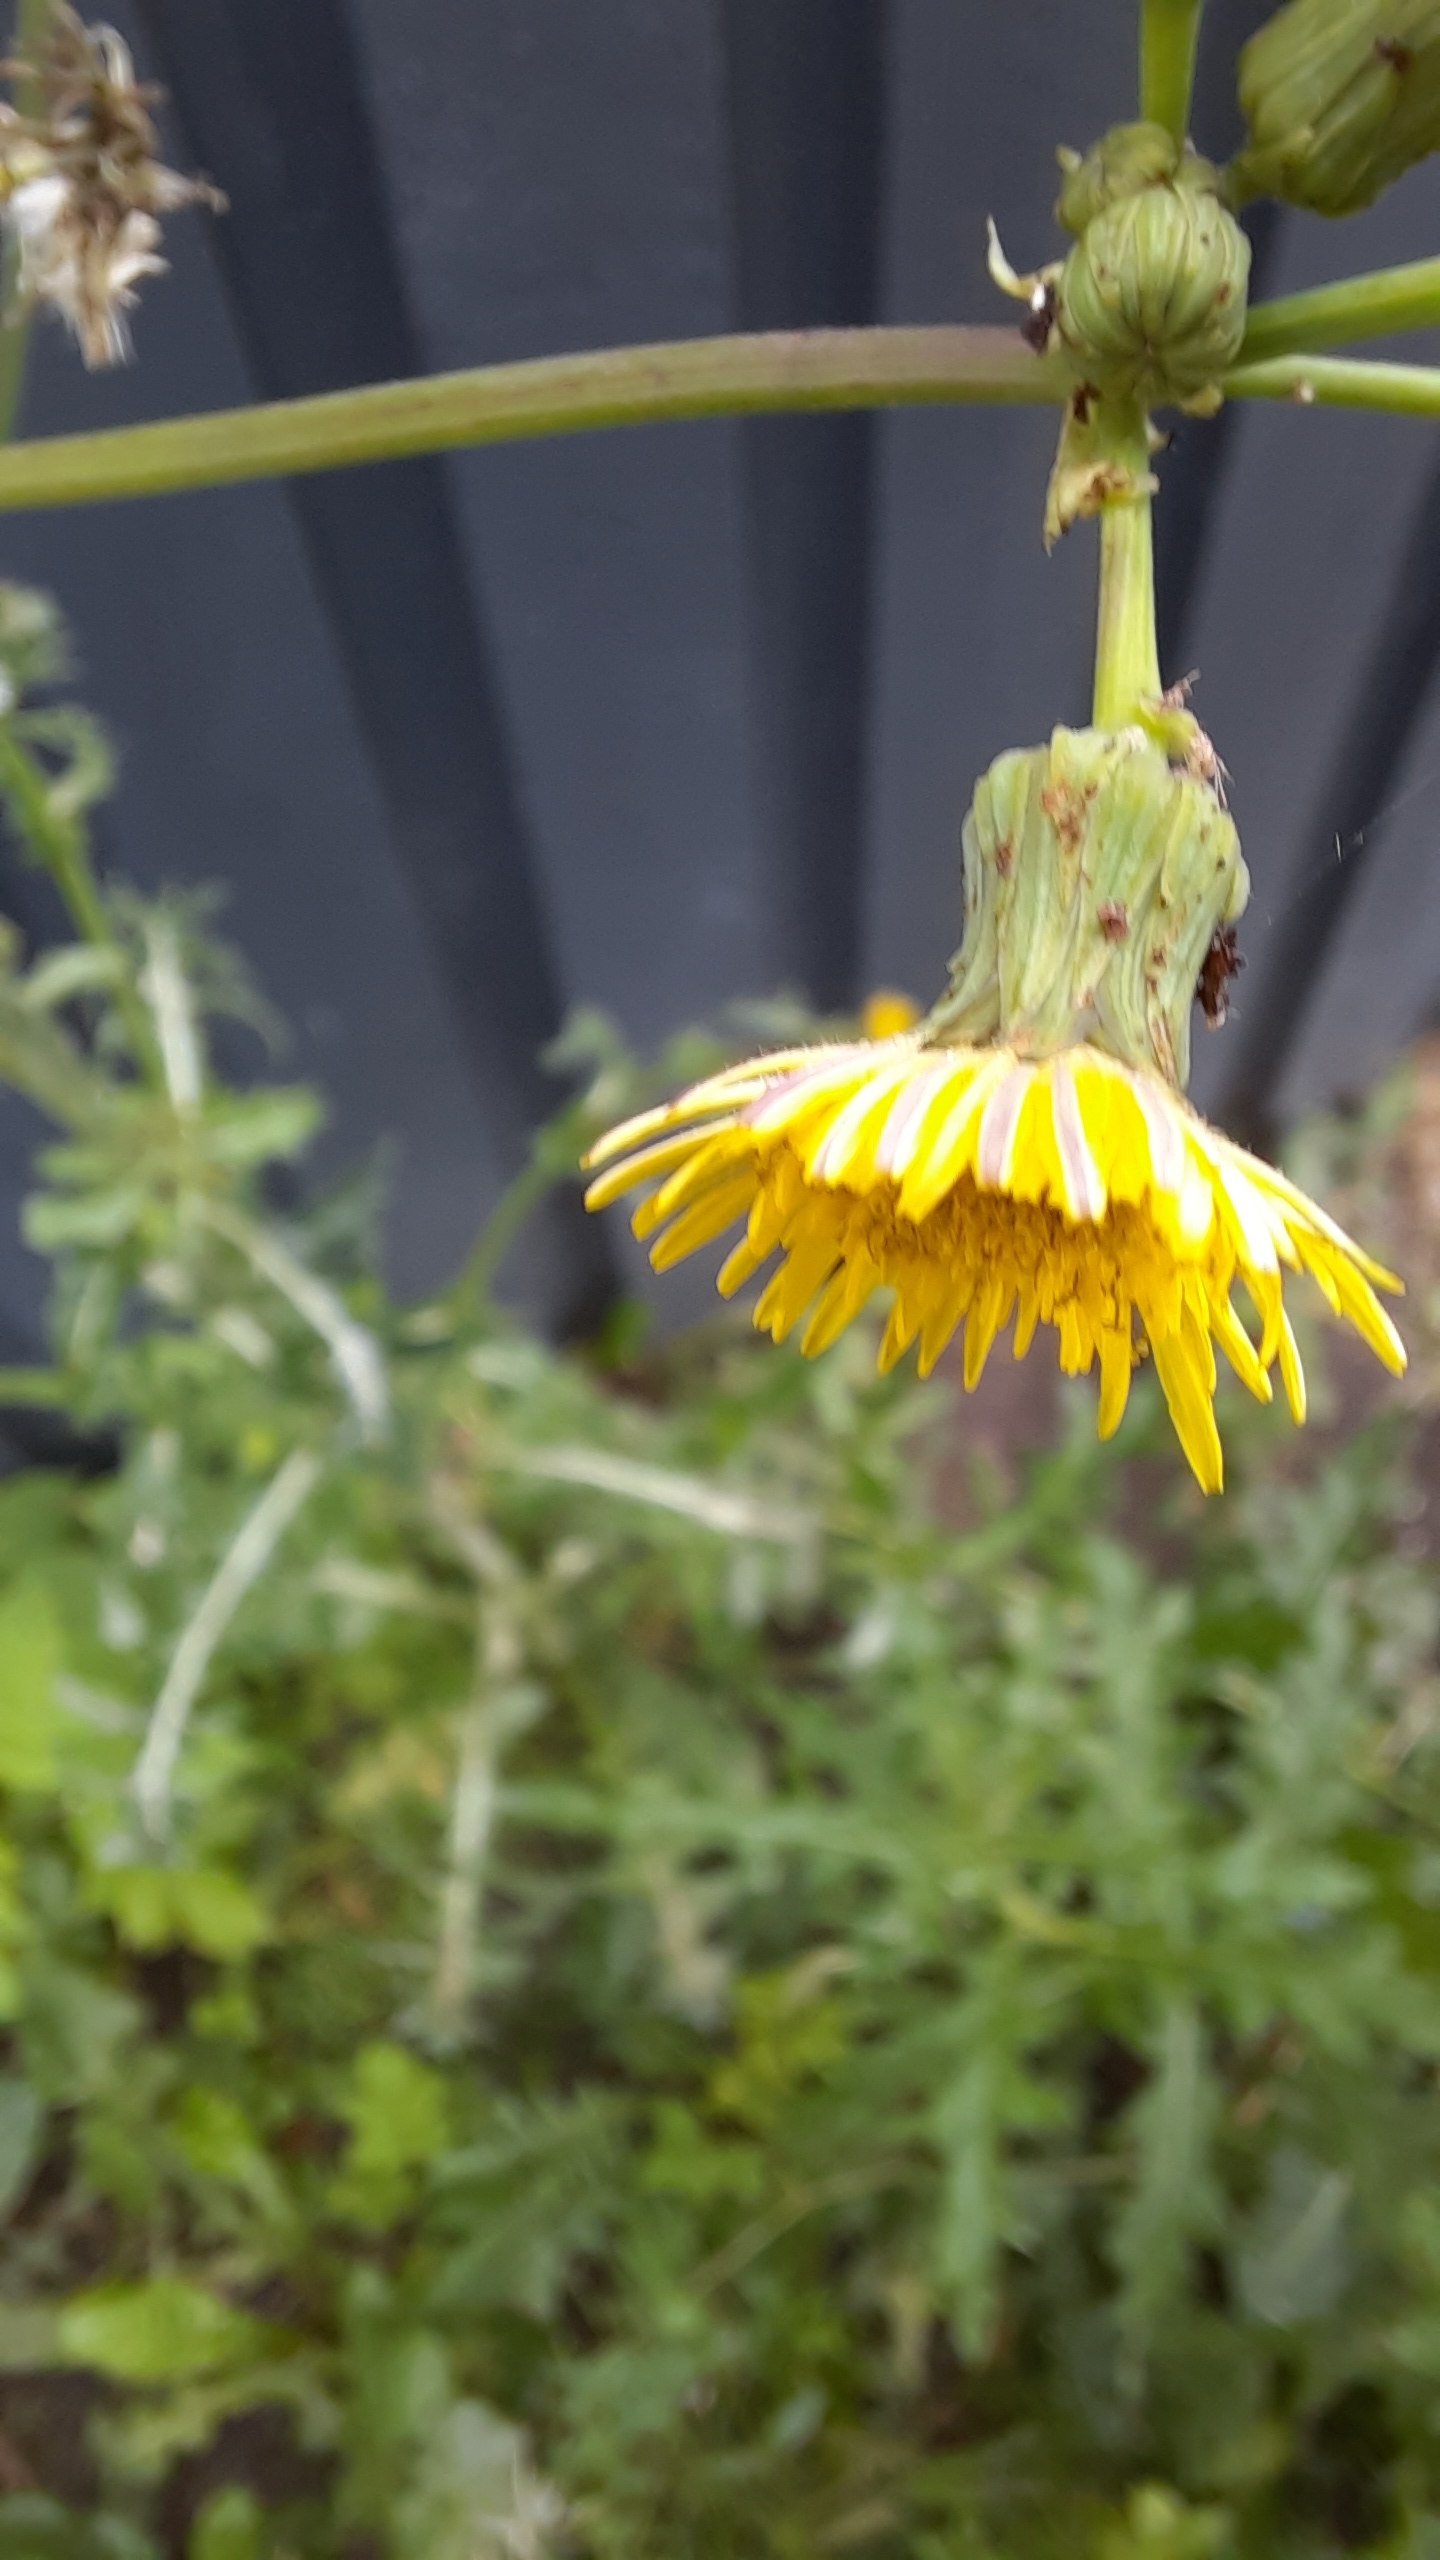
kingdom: Plantae
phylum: Tracheophyta
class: Magnoliopsida
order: Asterales
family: Asteraceae
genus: Sonchus
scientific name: Sonchus asper
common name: Ru svinemælk
